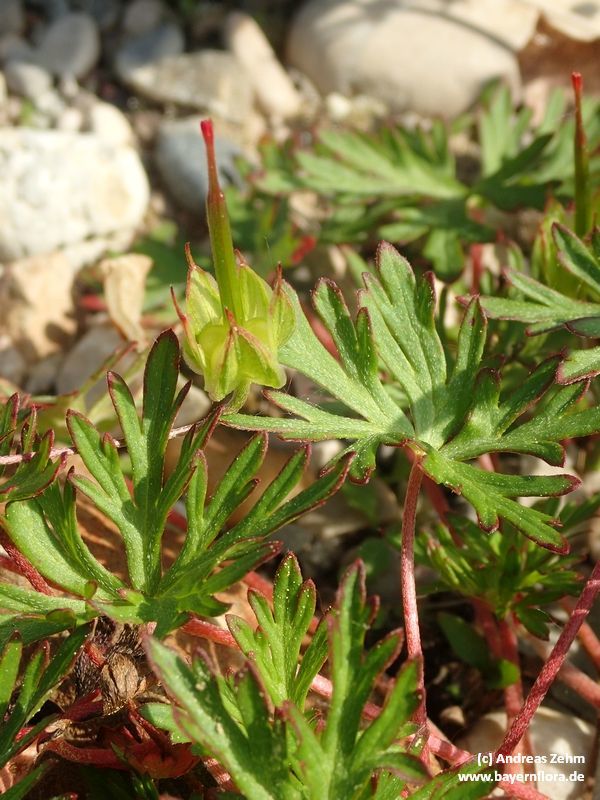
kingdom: Plantae
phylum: Tracheophyta
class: Magnoliopsida
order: Geraniales
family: Geraniaceae
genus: Geranium
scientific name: Geranium columbinum
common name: Long-stalked crane's-bill
